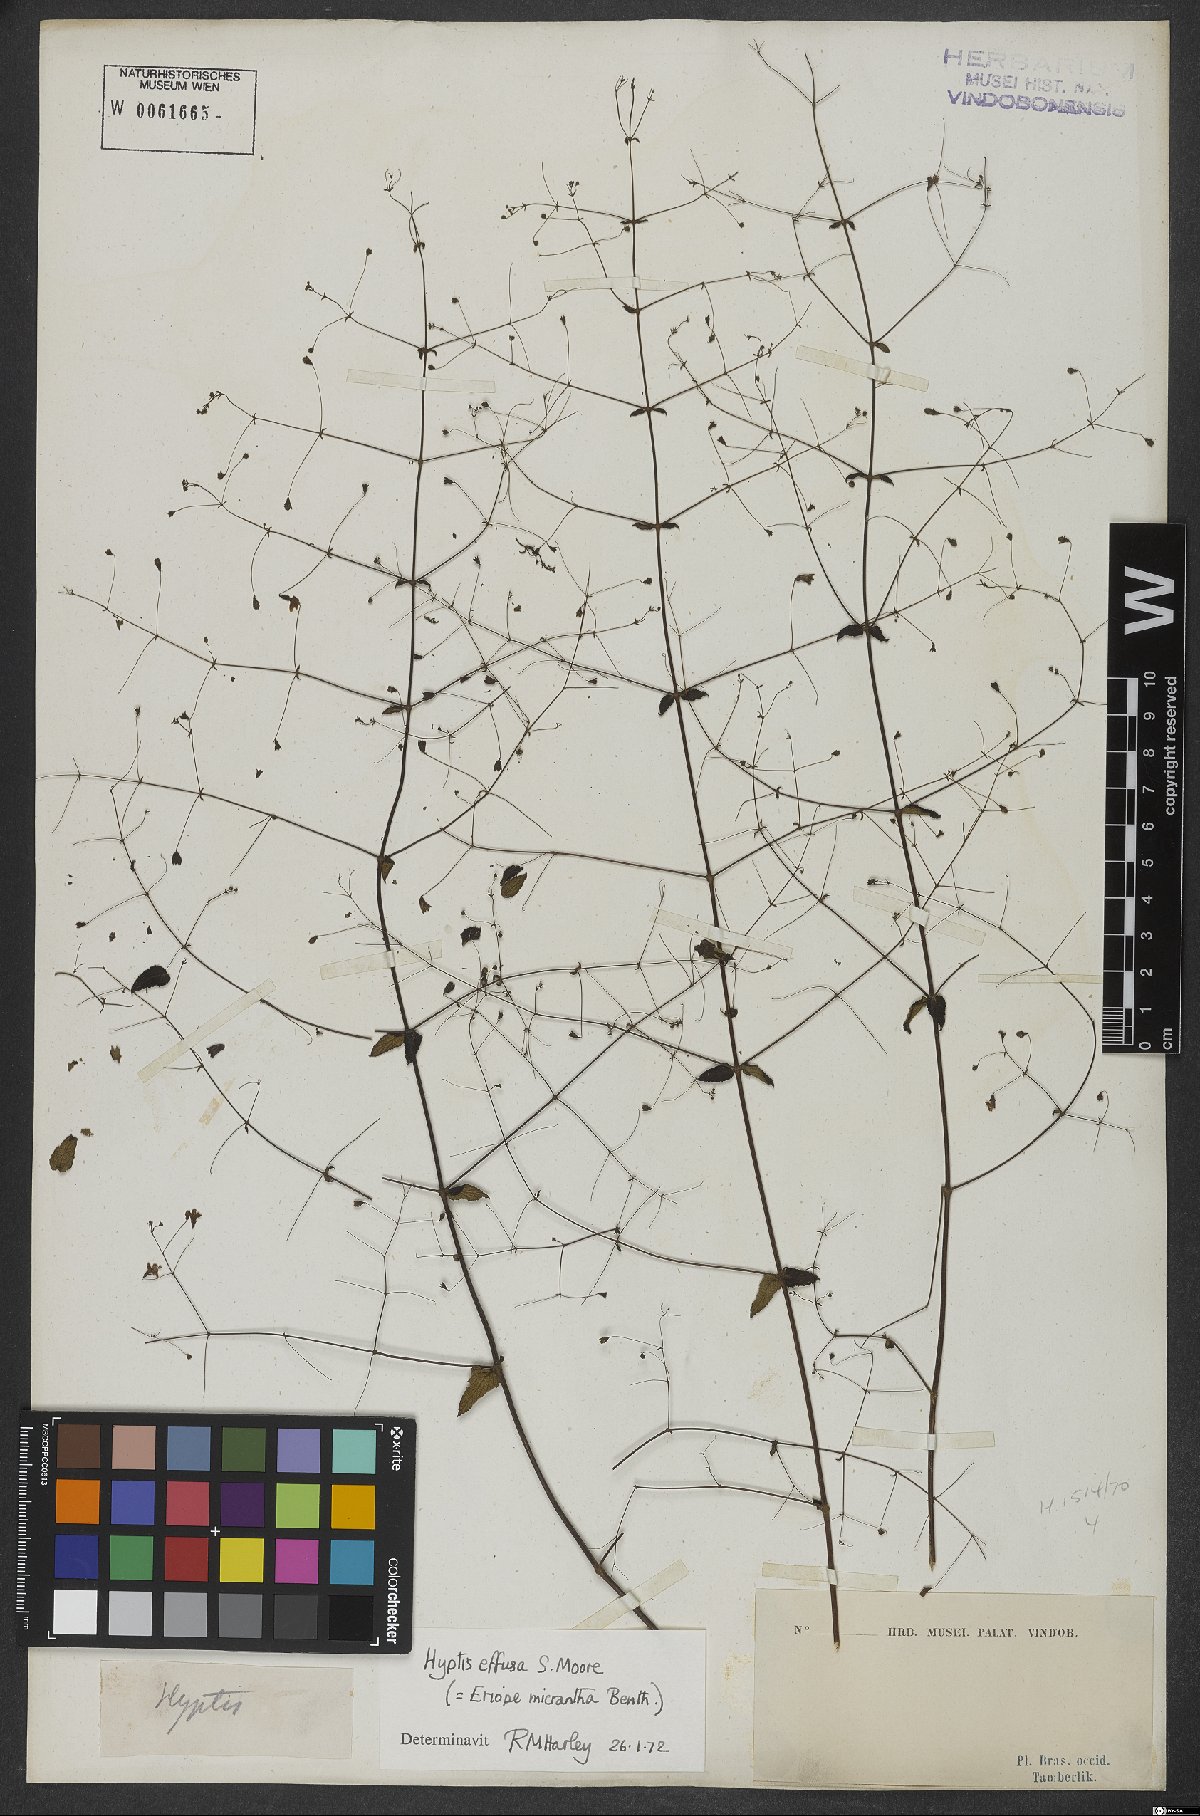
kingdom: Plantae
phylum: Tracheophyta
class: Magnoliopsida
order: Lamiales
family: Lamiaceae
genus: Hypenia
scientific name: Hypenia micrantha
